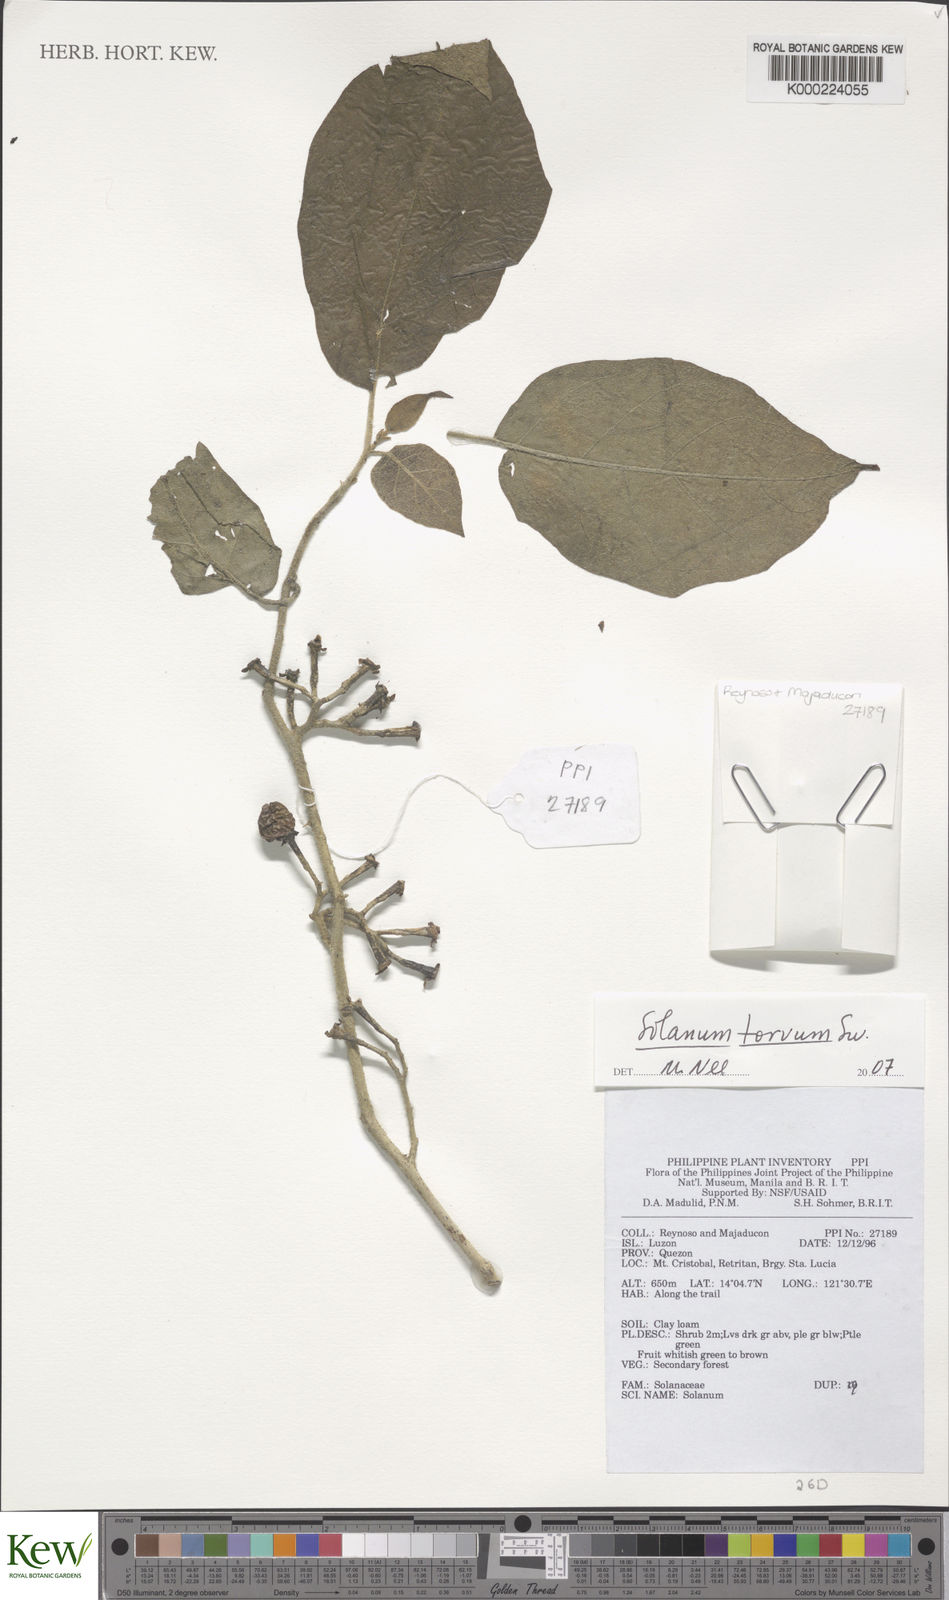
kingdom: Plantae
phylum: Tracheophyta
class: Magnoliopsida
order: Solanales
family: Solanaceae
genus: Solanum
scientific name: Solanum
